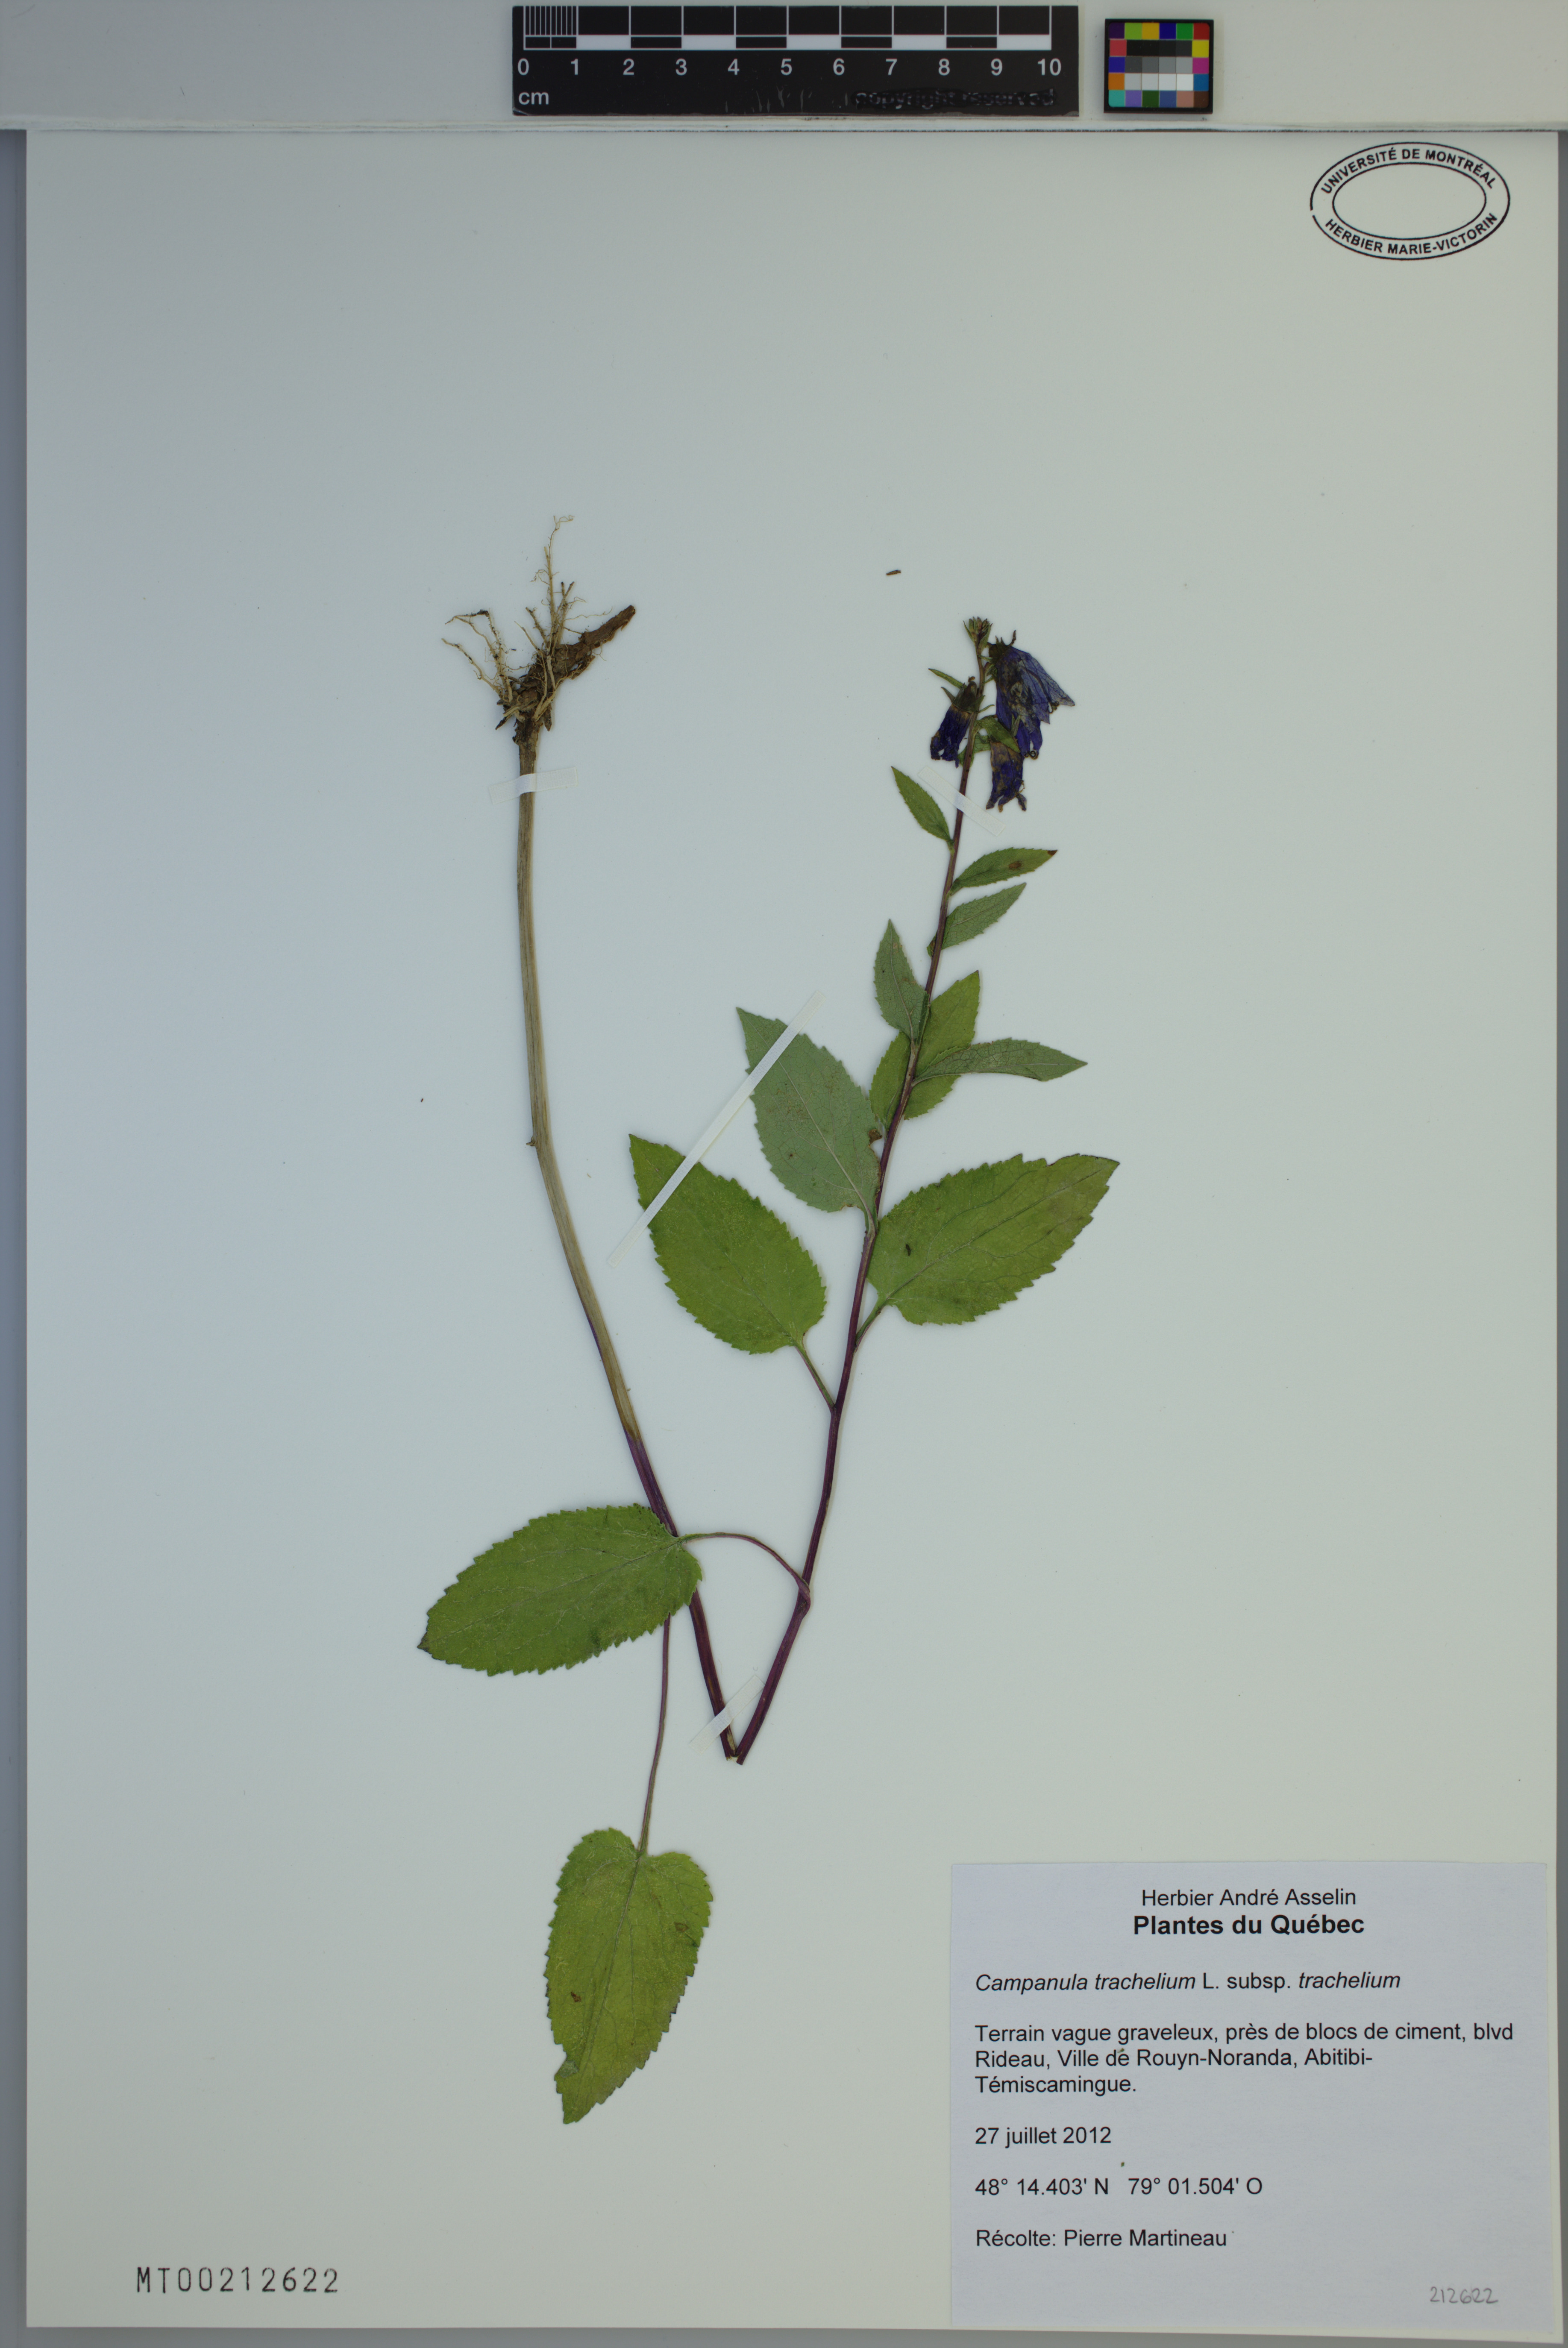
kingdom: Plantae
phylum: Tracheophyta
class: Magnoliopsida
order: Asterales
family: Campanulaceae
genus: Campanula
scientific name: Campanula trachelium
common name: Nettle-leaved bellflower
